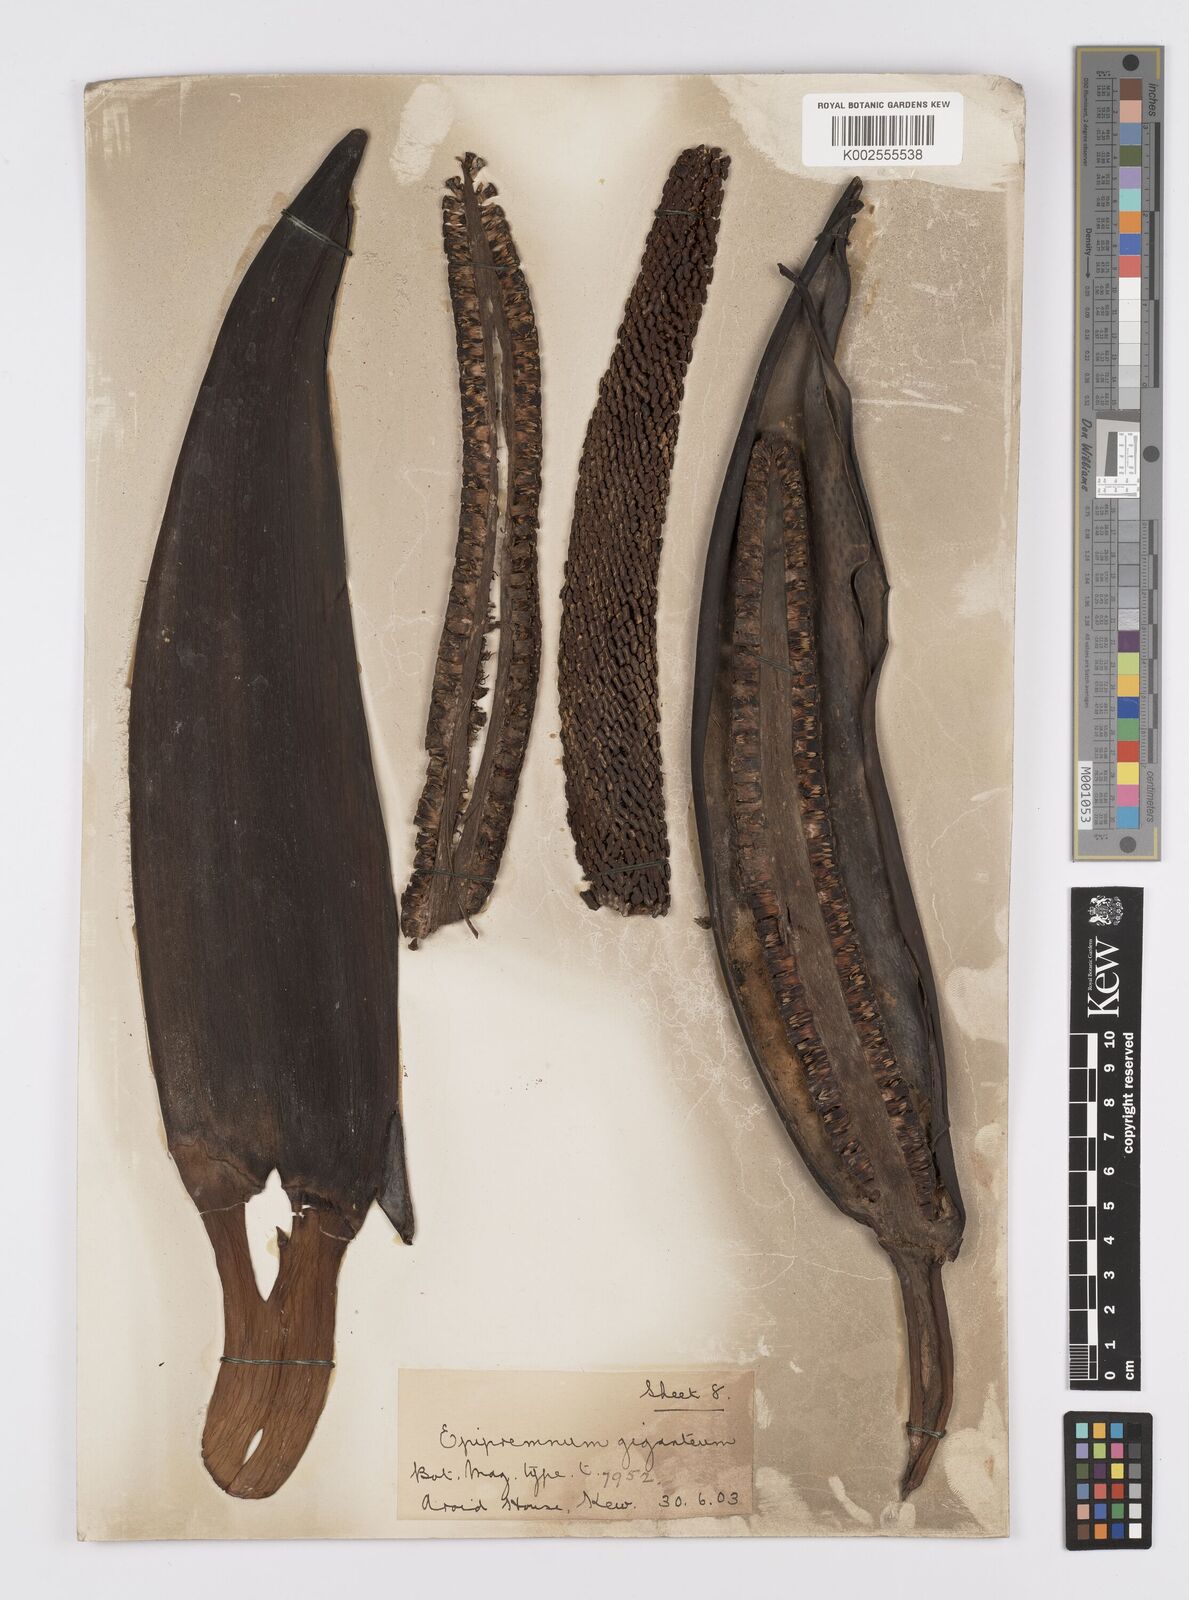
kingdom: Plantae
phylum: Tracheophyta
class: Liliopsida
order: Alismatales
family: Araceae
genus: Epipremnum
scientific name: Epipremnum giganteum
